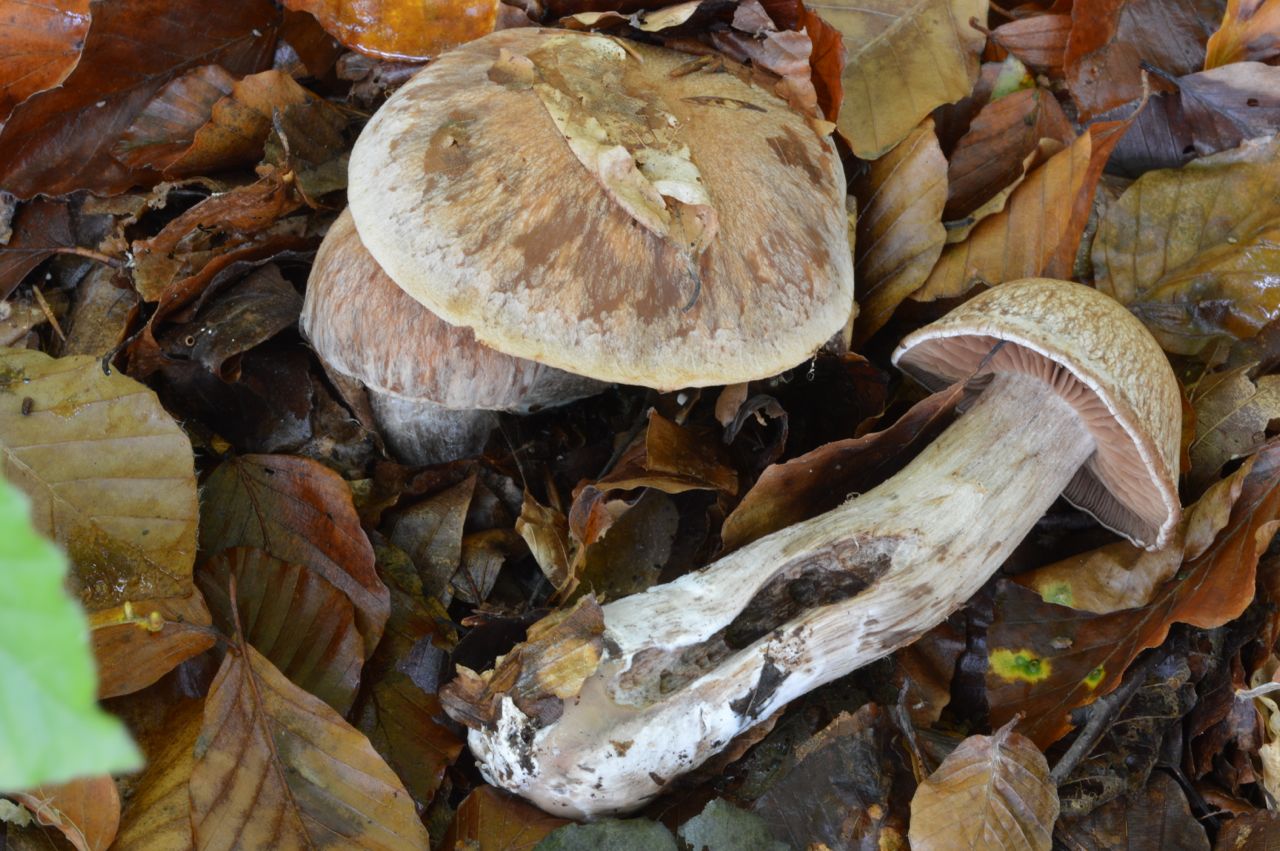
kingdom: Fungi
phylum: Basidiomycota
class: Agaricomycetes
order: Agaricales
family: Cortinariaceae
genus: Cortinarius
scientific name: Cortinarius
